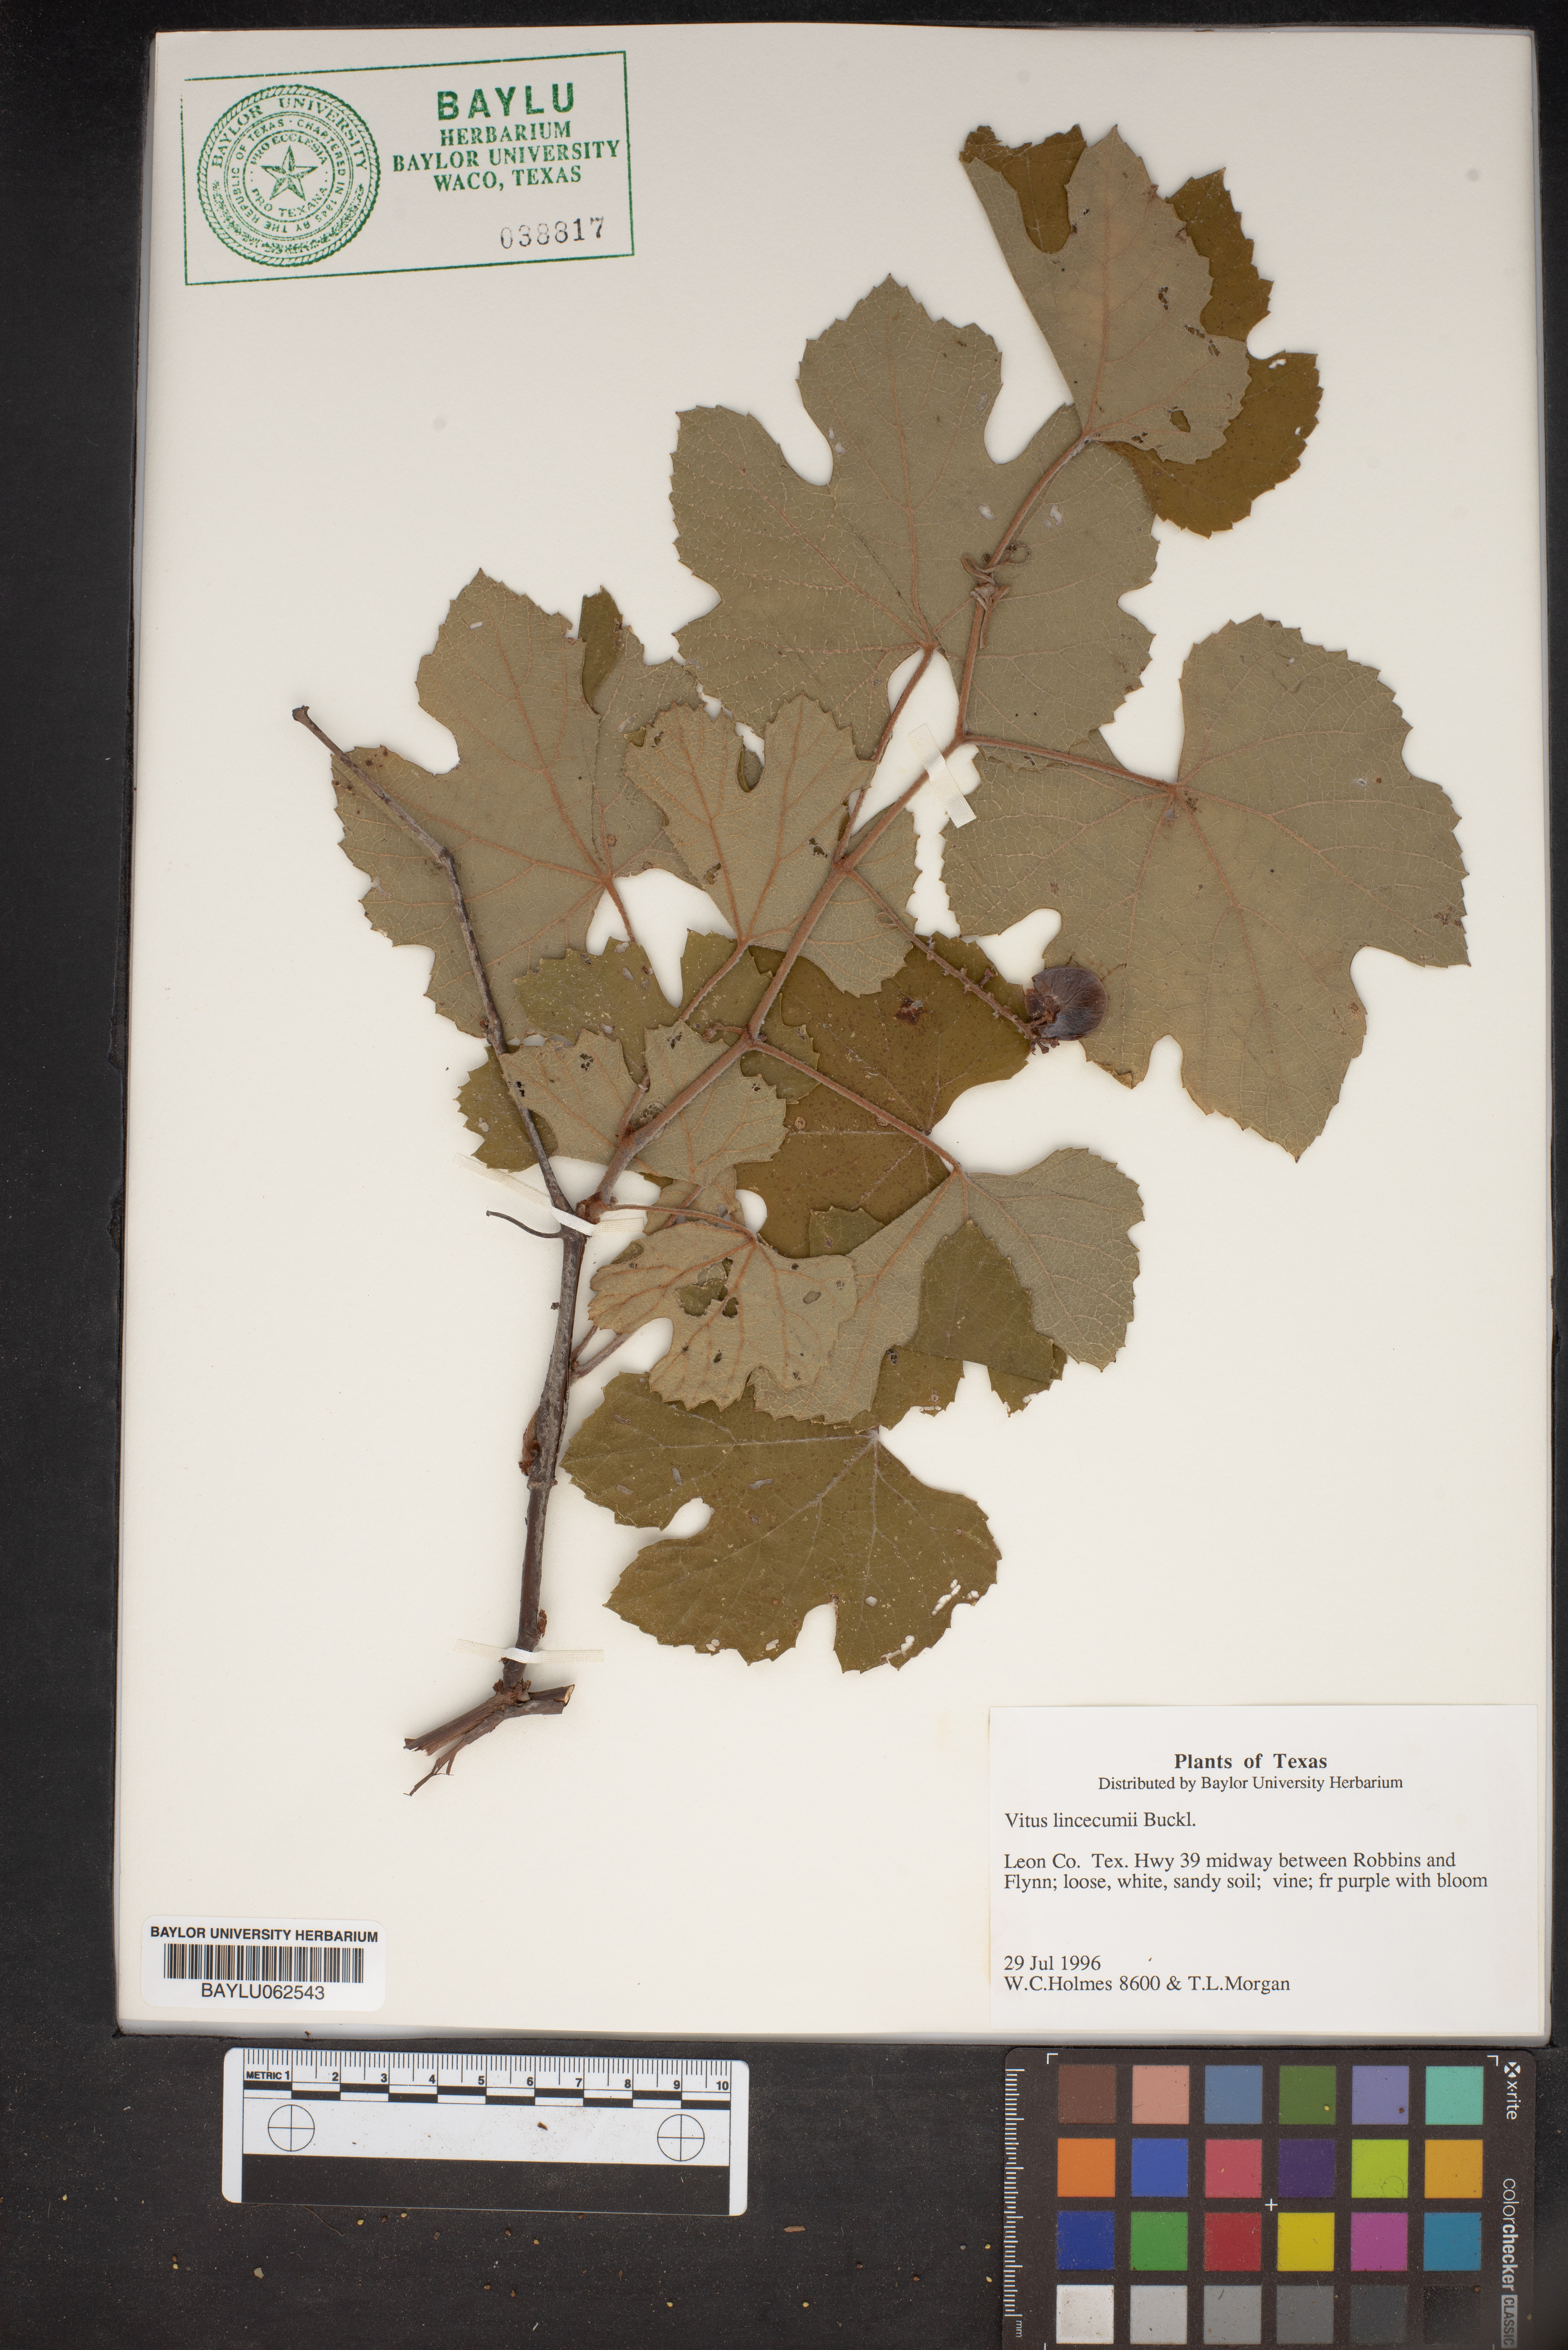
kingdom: Plantae
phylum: Tracheophyta
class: Magnoliopsida
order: Vitales
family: Vitaceae
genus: Vitis
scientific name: Vitis aestivalis
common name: Pigeon grape
